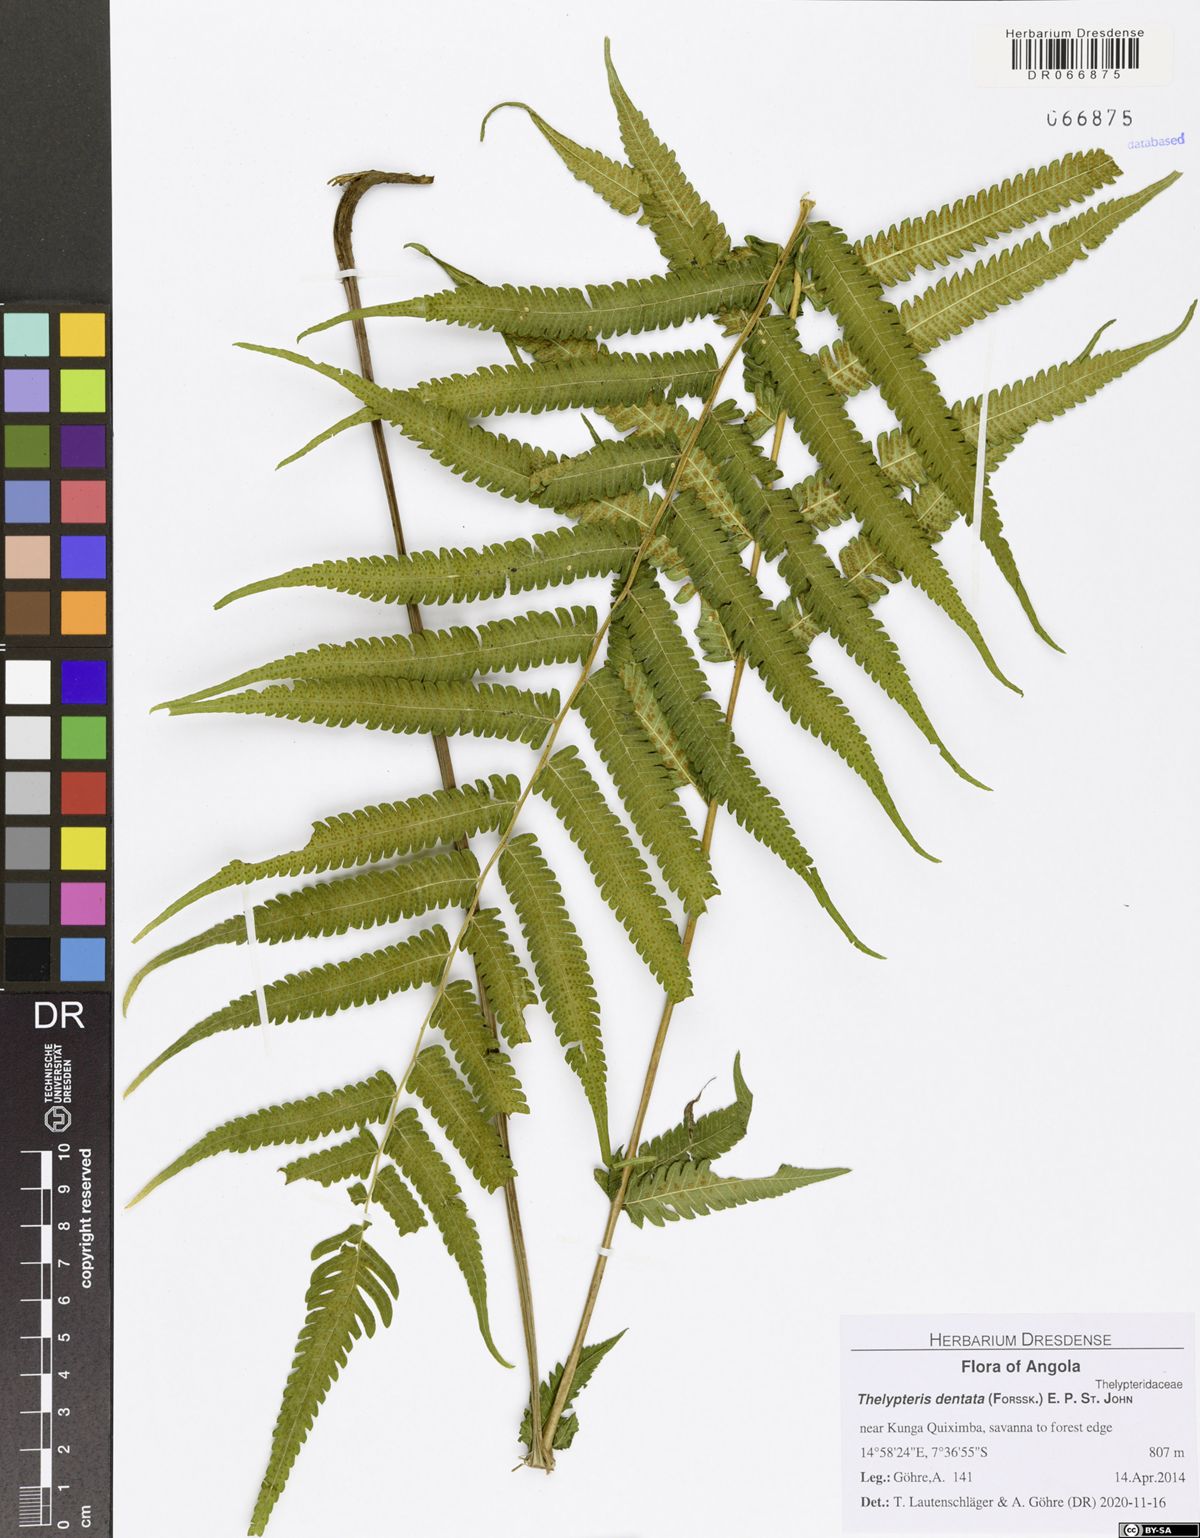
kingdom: Plantae
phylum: Tracheophyta
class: Polypodiopsida
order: Polypodiales
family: Thelypteridaceae
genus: Christella
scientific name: Christella dentata
